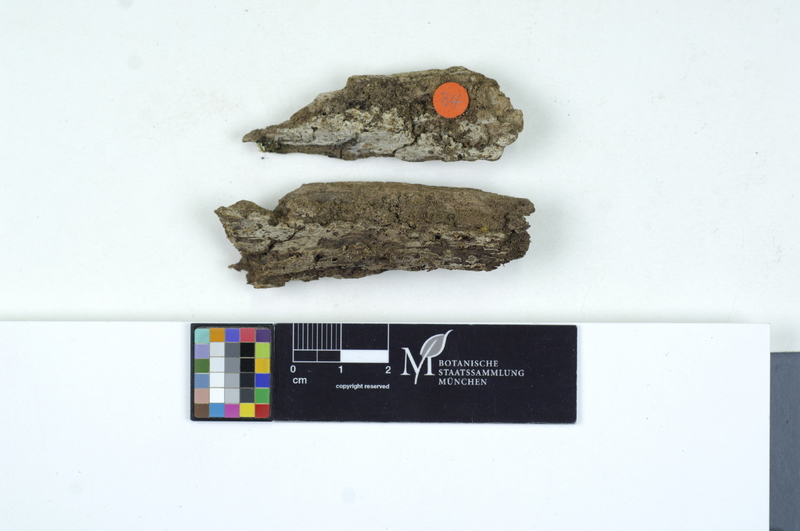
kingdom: Plantae
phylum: Tracheophyta
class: Magnoliopsida
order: Fagales
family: Fagaceae
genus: Fagus
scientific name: Fagus sylvatica
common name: Beech
